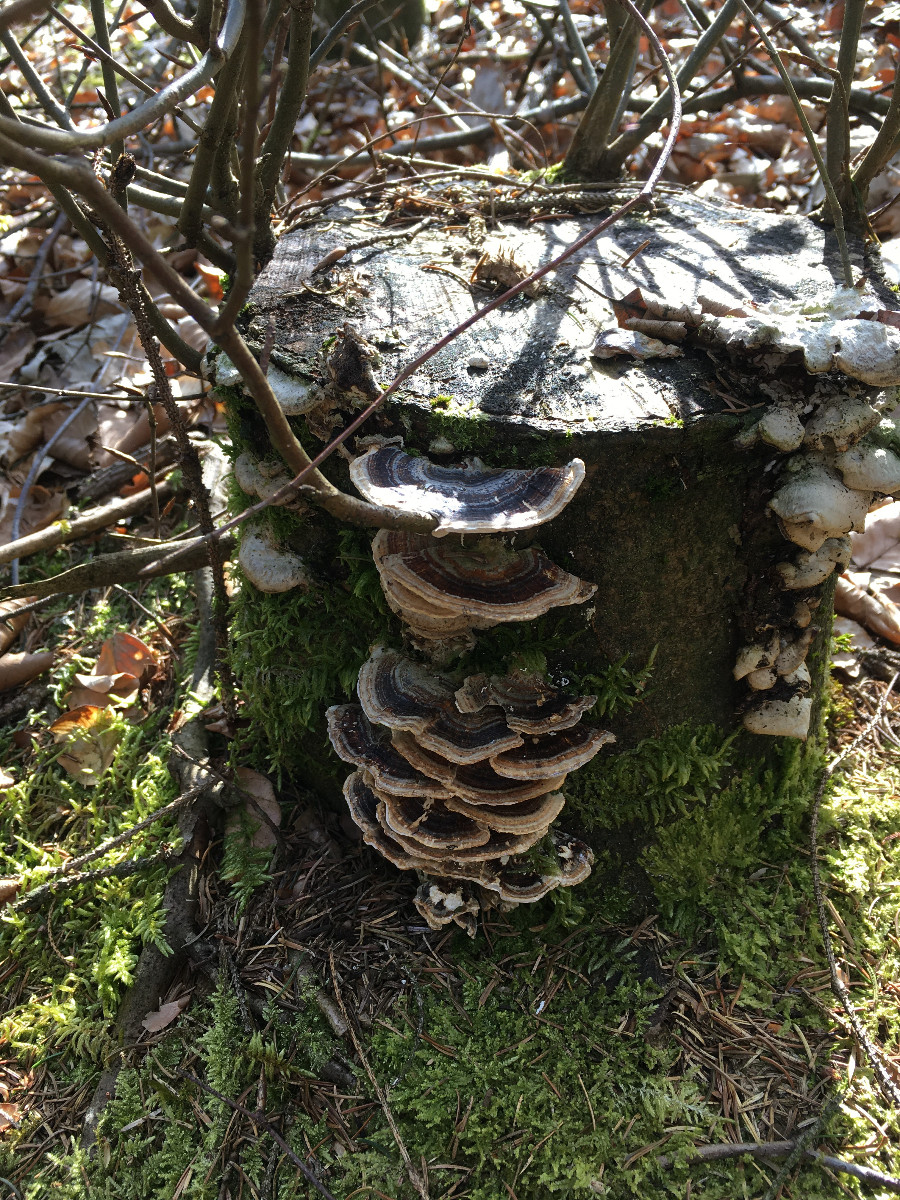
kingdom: Fungi
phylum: Basidiomycota
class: Agaricomycetes
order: Polyporales
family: Polyporaceae
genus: Trametes
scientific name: Trametes versicolor
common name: broget læderporesvamp
